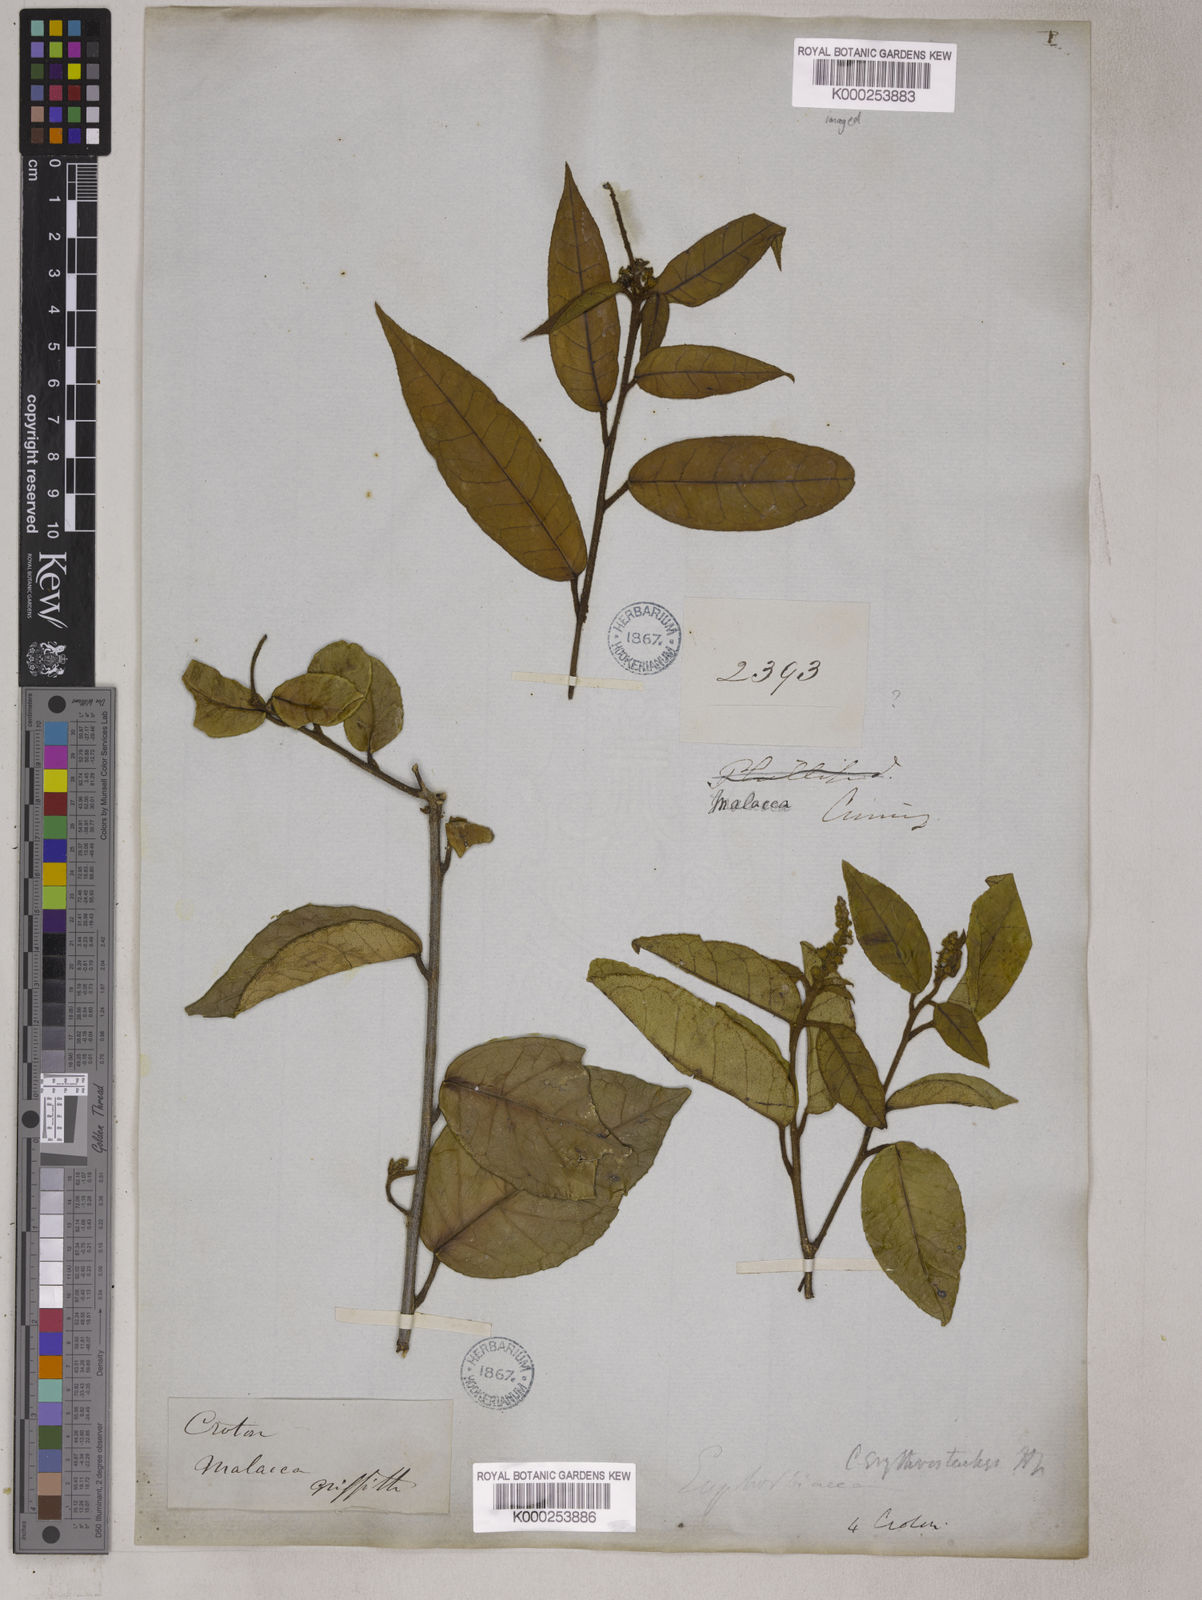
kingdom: Plantae
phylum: Tracheophyta
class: Magnoliopsida
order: Malpighiales
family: Euphorbiaceae
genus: Croton
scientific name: Croton erythrostachys
